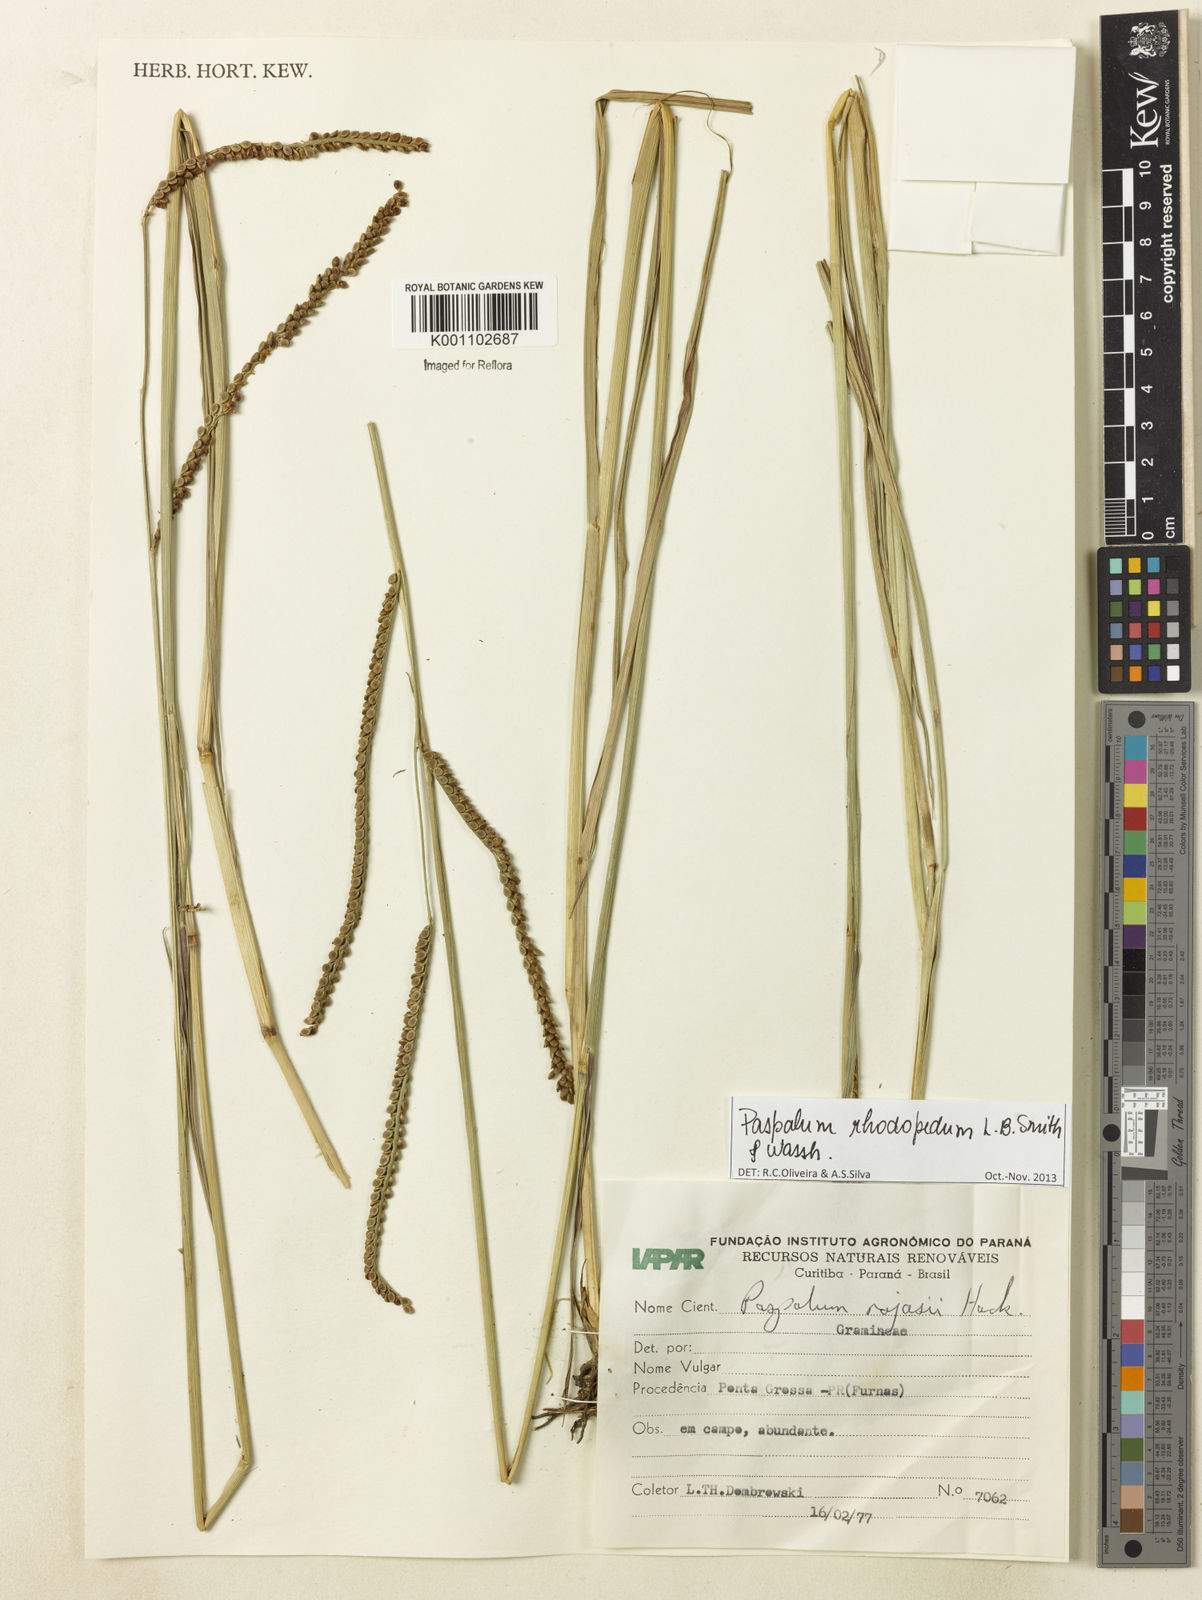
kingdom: Plantae
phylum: Tracheophyta
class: Liliopsida
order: Poales
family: Poaceae
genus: Paspalum
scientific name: Paspalum guenoarum
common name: Wintergreen paspalum
